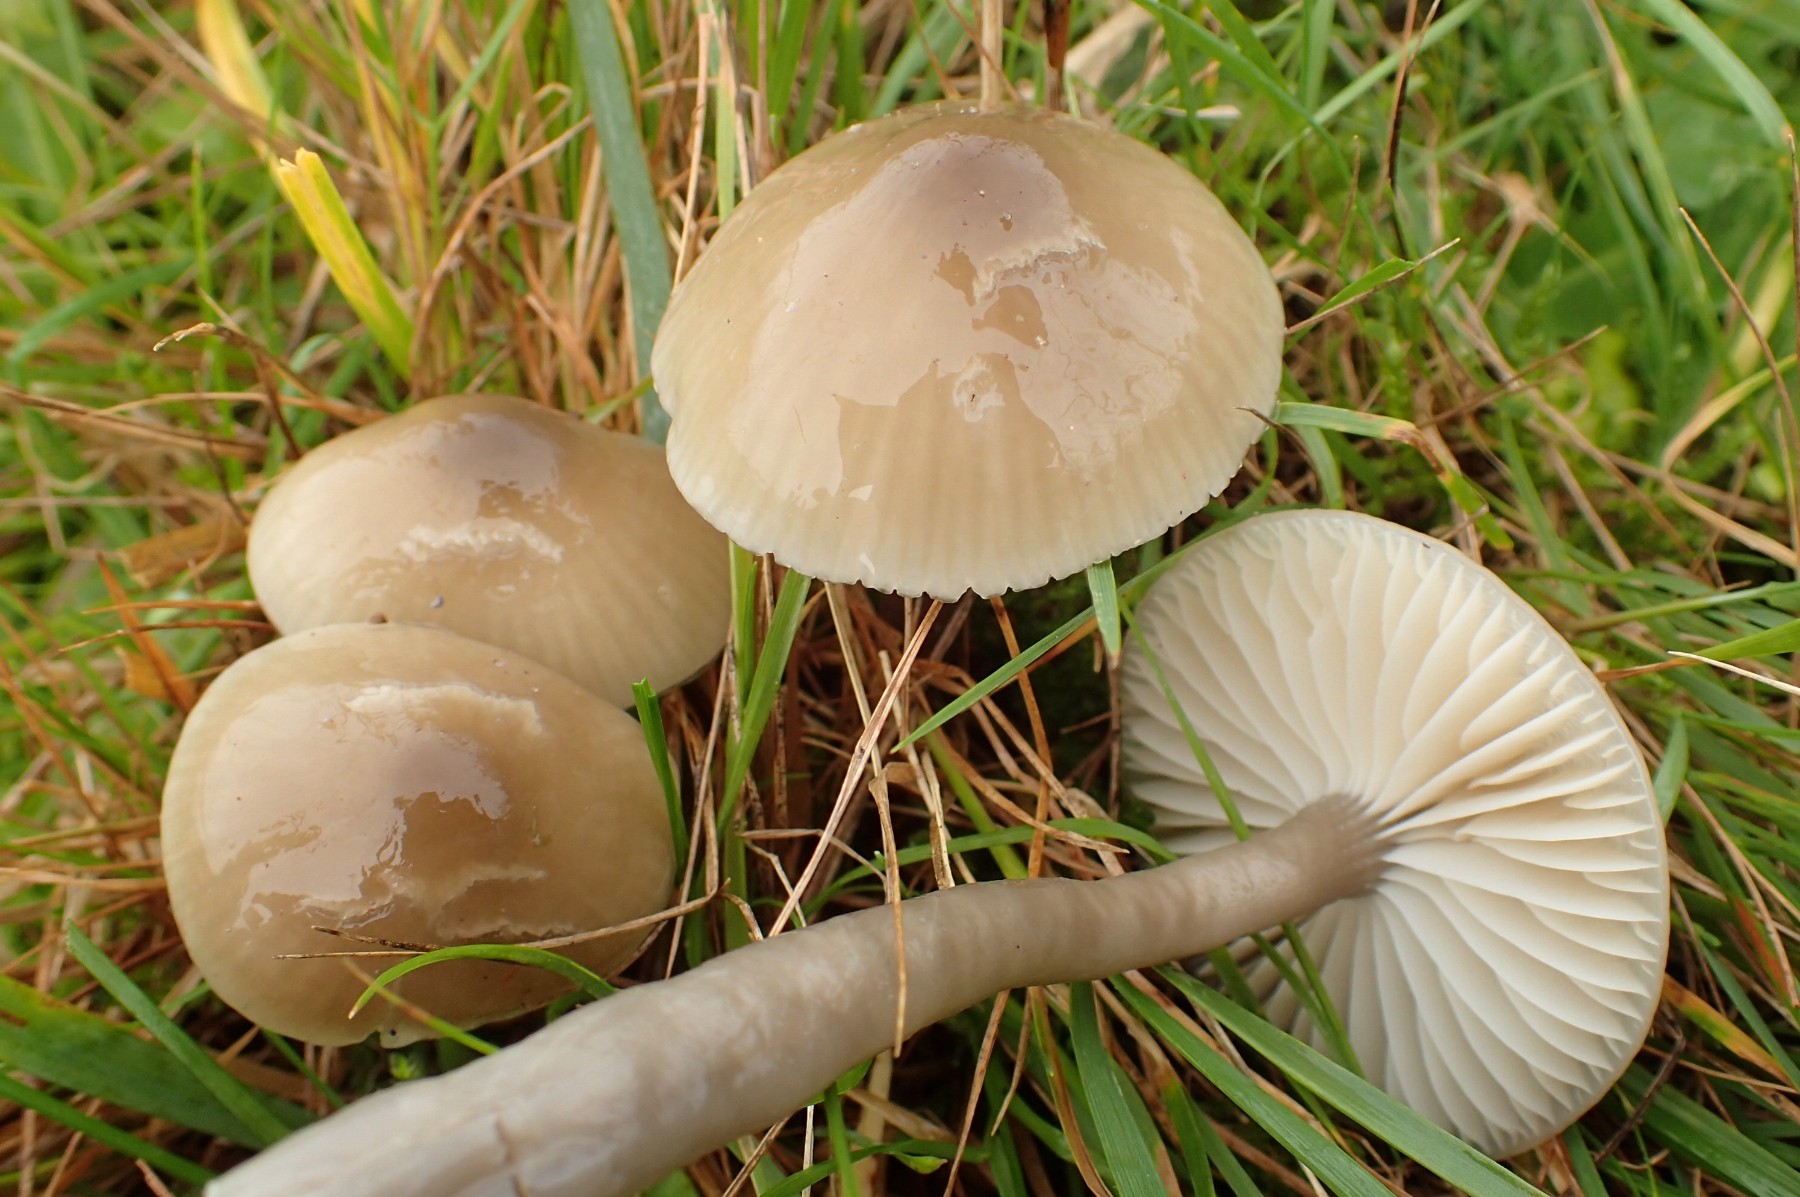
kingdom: Fungi
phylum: Basidiomycota
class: Agaricomycetes
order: Agaricales
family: Hygrophoraceae
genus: Gliophorus
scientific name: Gliophorus irrigatus
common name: slimet vokshat
